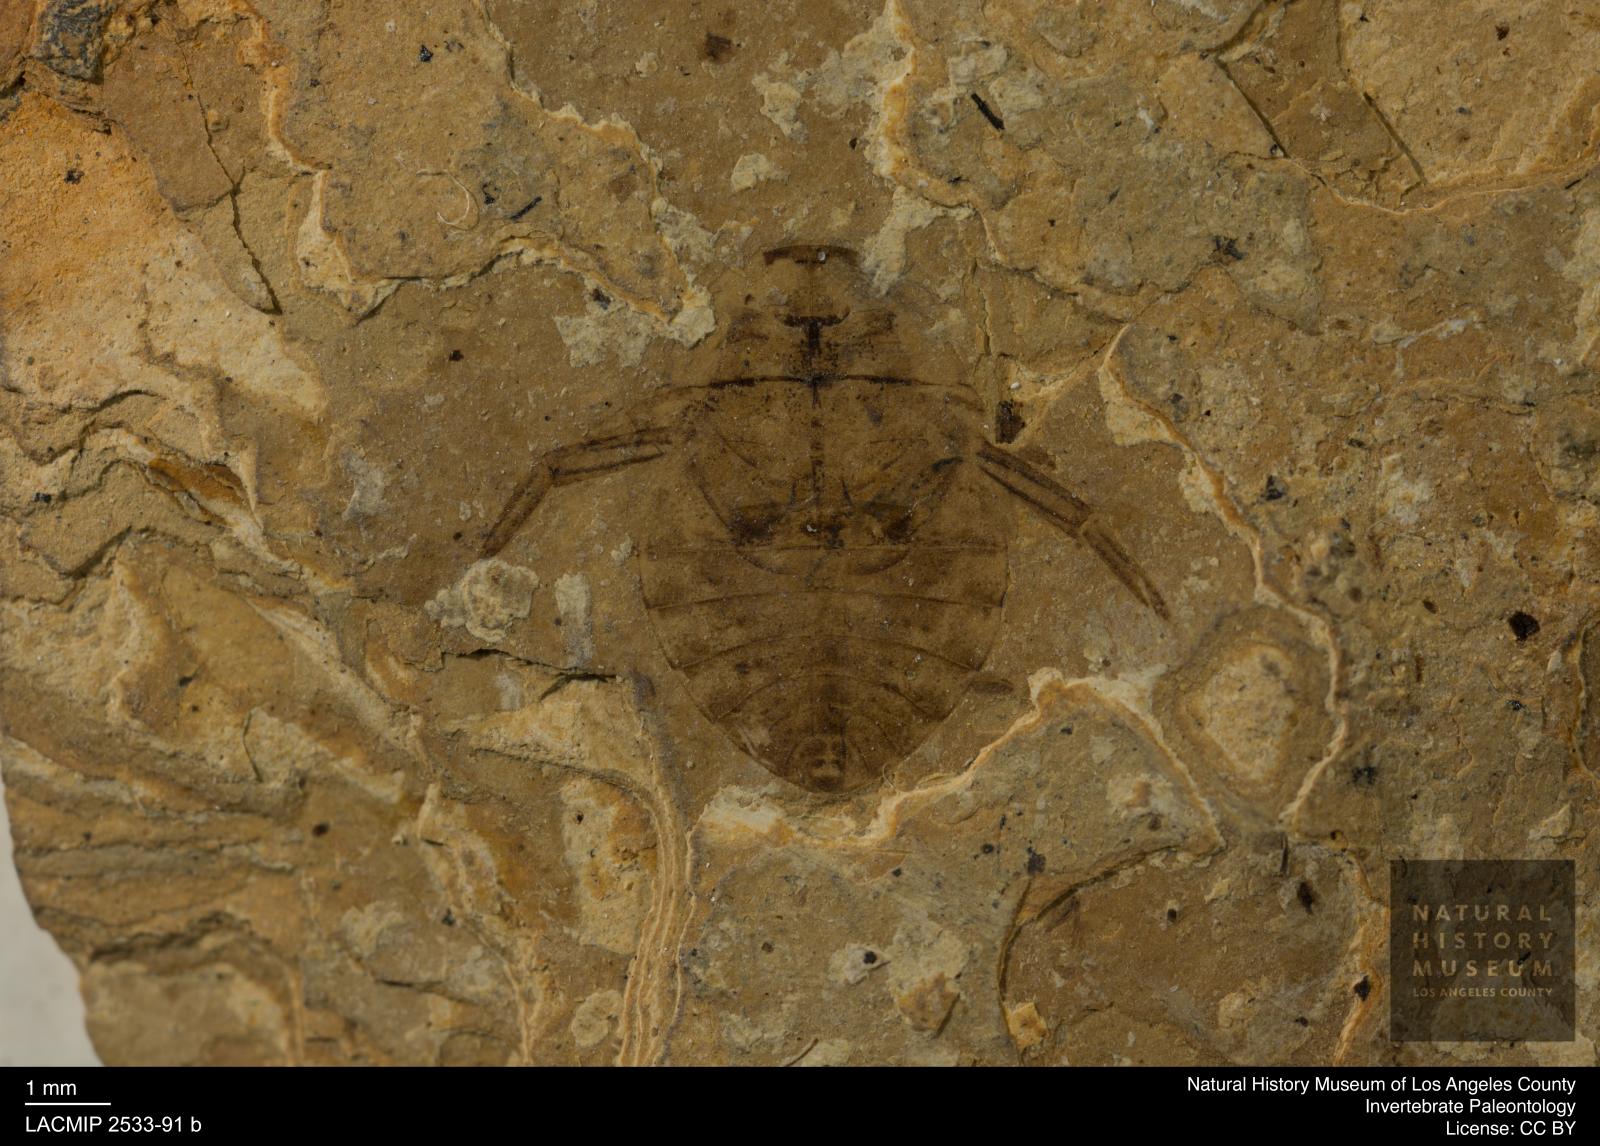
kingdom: Animalia
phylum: Arthropoda
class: Insecta
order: Hemiptera
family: Naucoridae
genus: Naucoris
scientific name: Naucoris rottensis
